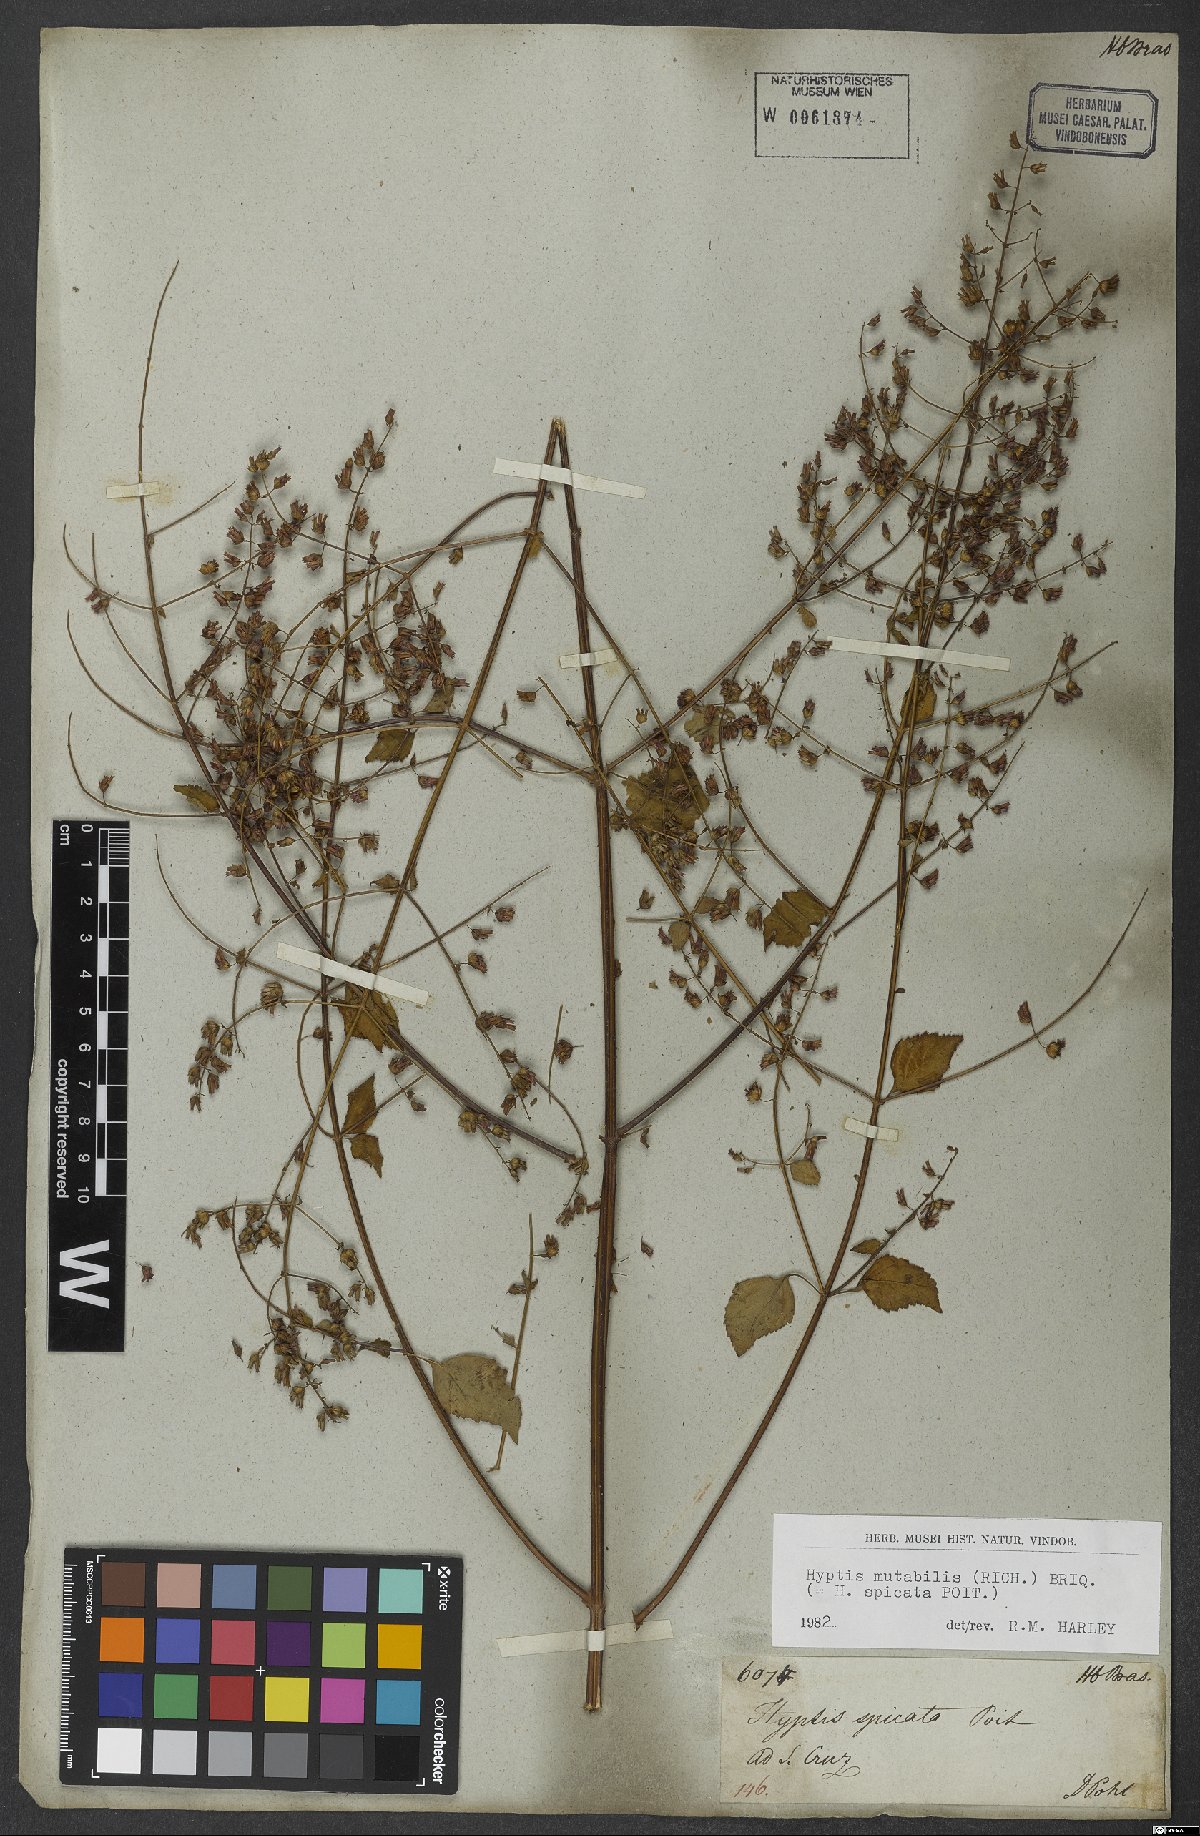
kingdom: Plantae
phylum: Tracheophyta
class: Magnoliopsida
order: Lamiales
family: Lamiaceae
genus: Cantinoa
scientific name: Cantinoa mutabilis
